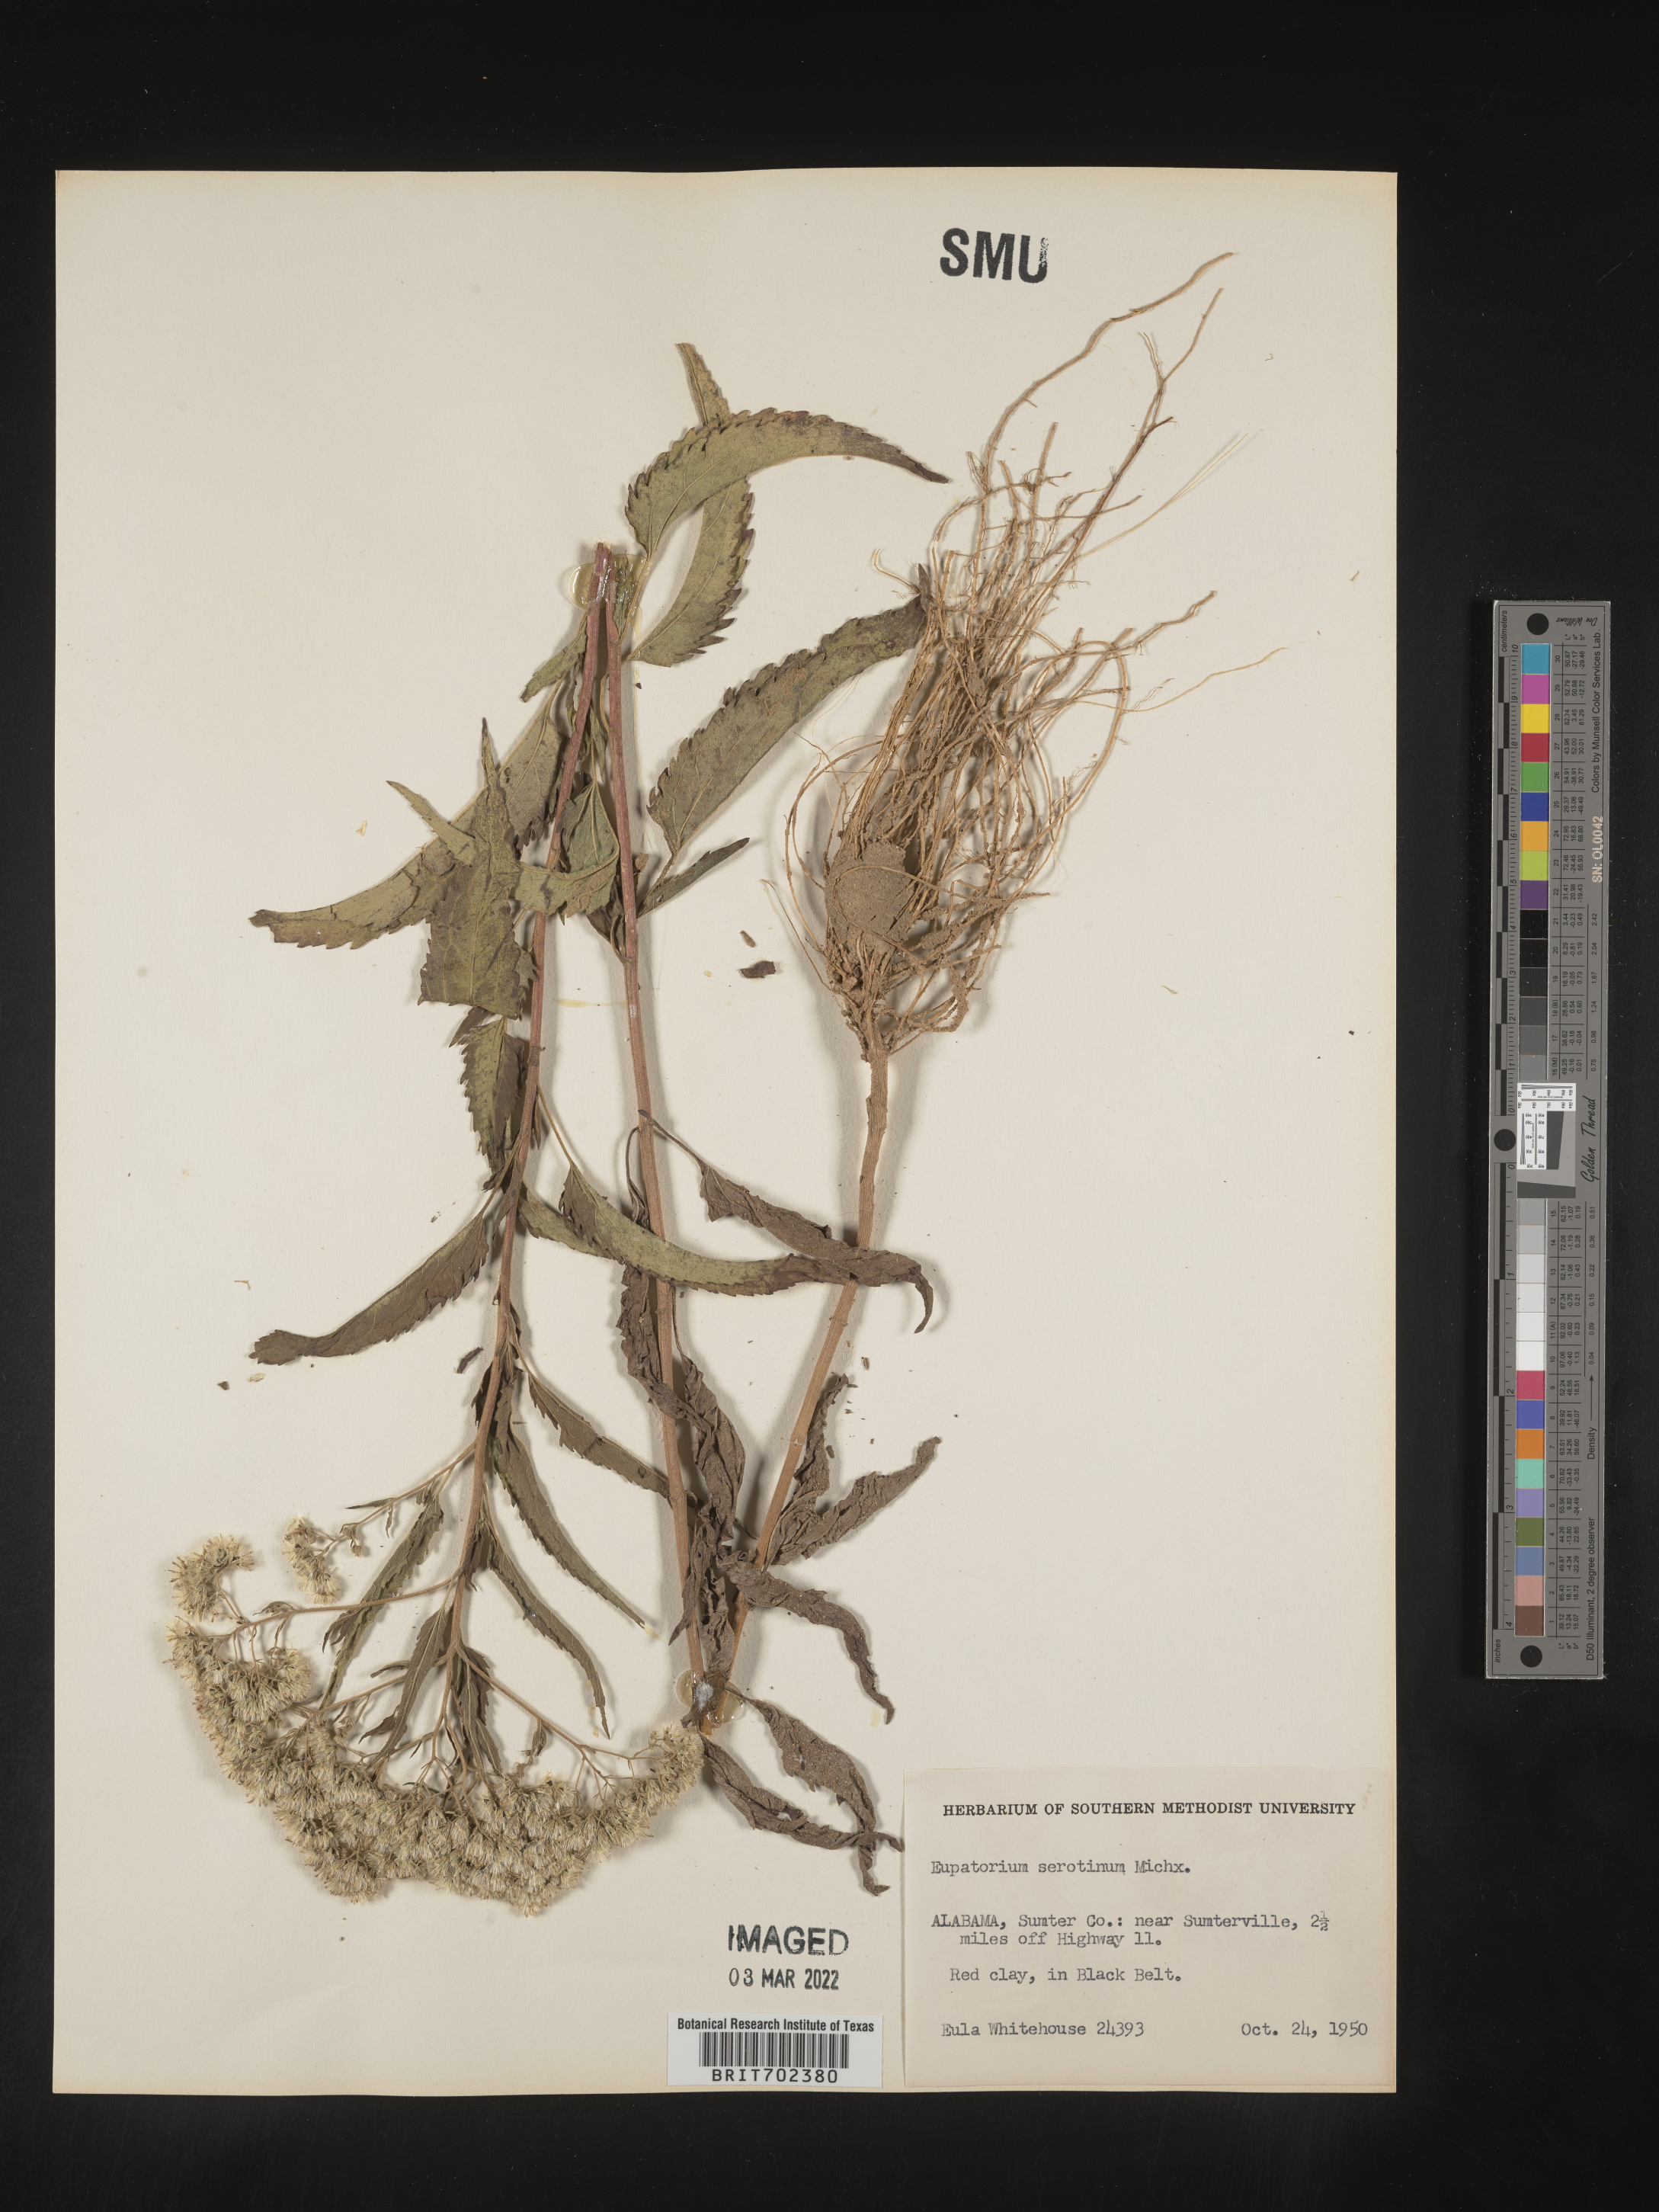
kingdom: Plantae
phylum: Tracheophyta
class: Magnoliopsida
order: Asterales
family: Asteraceae
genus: Eupatorium
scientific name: Eupatorium serotinum
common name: Late boneset
